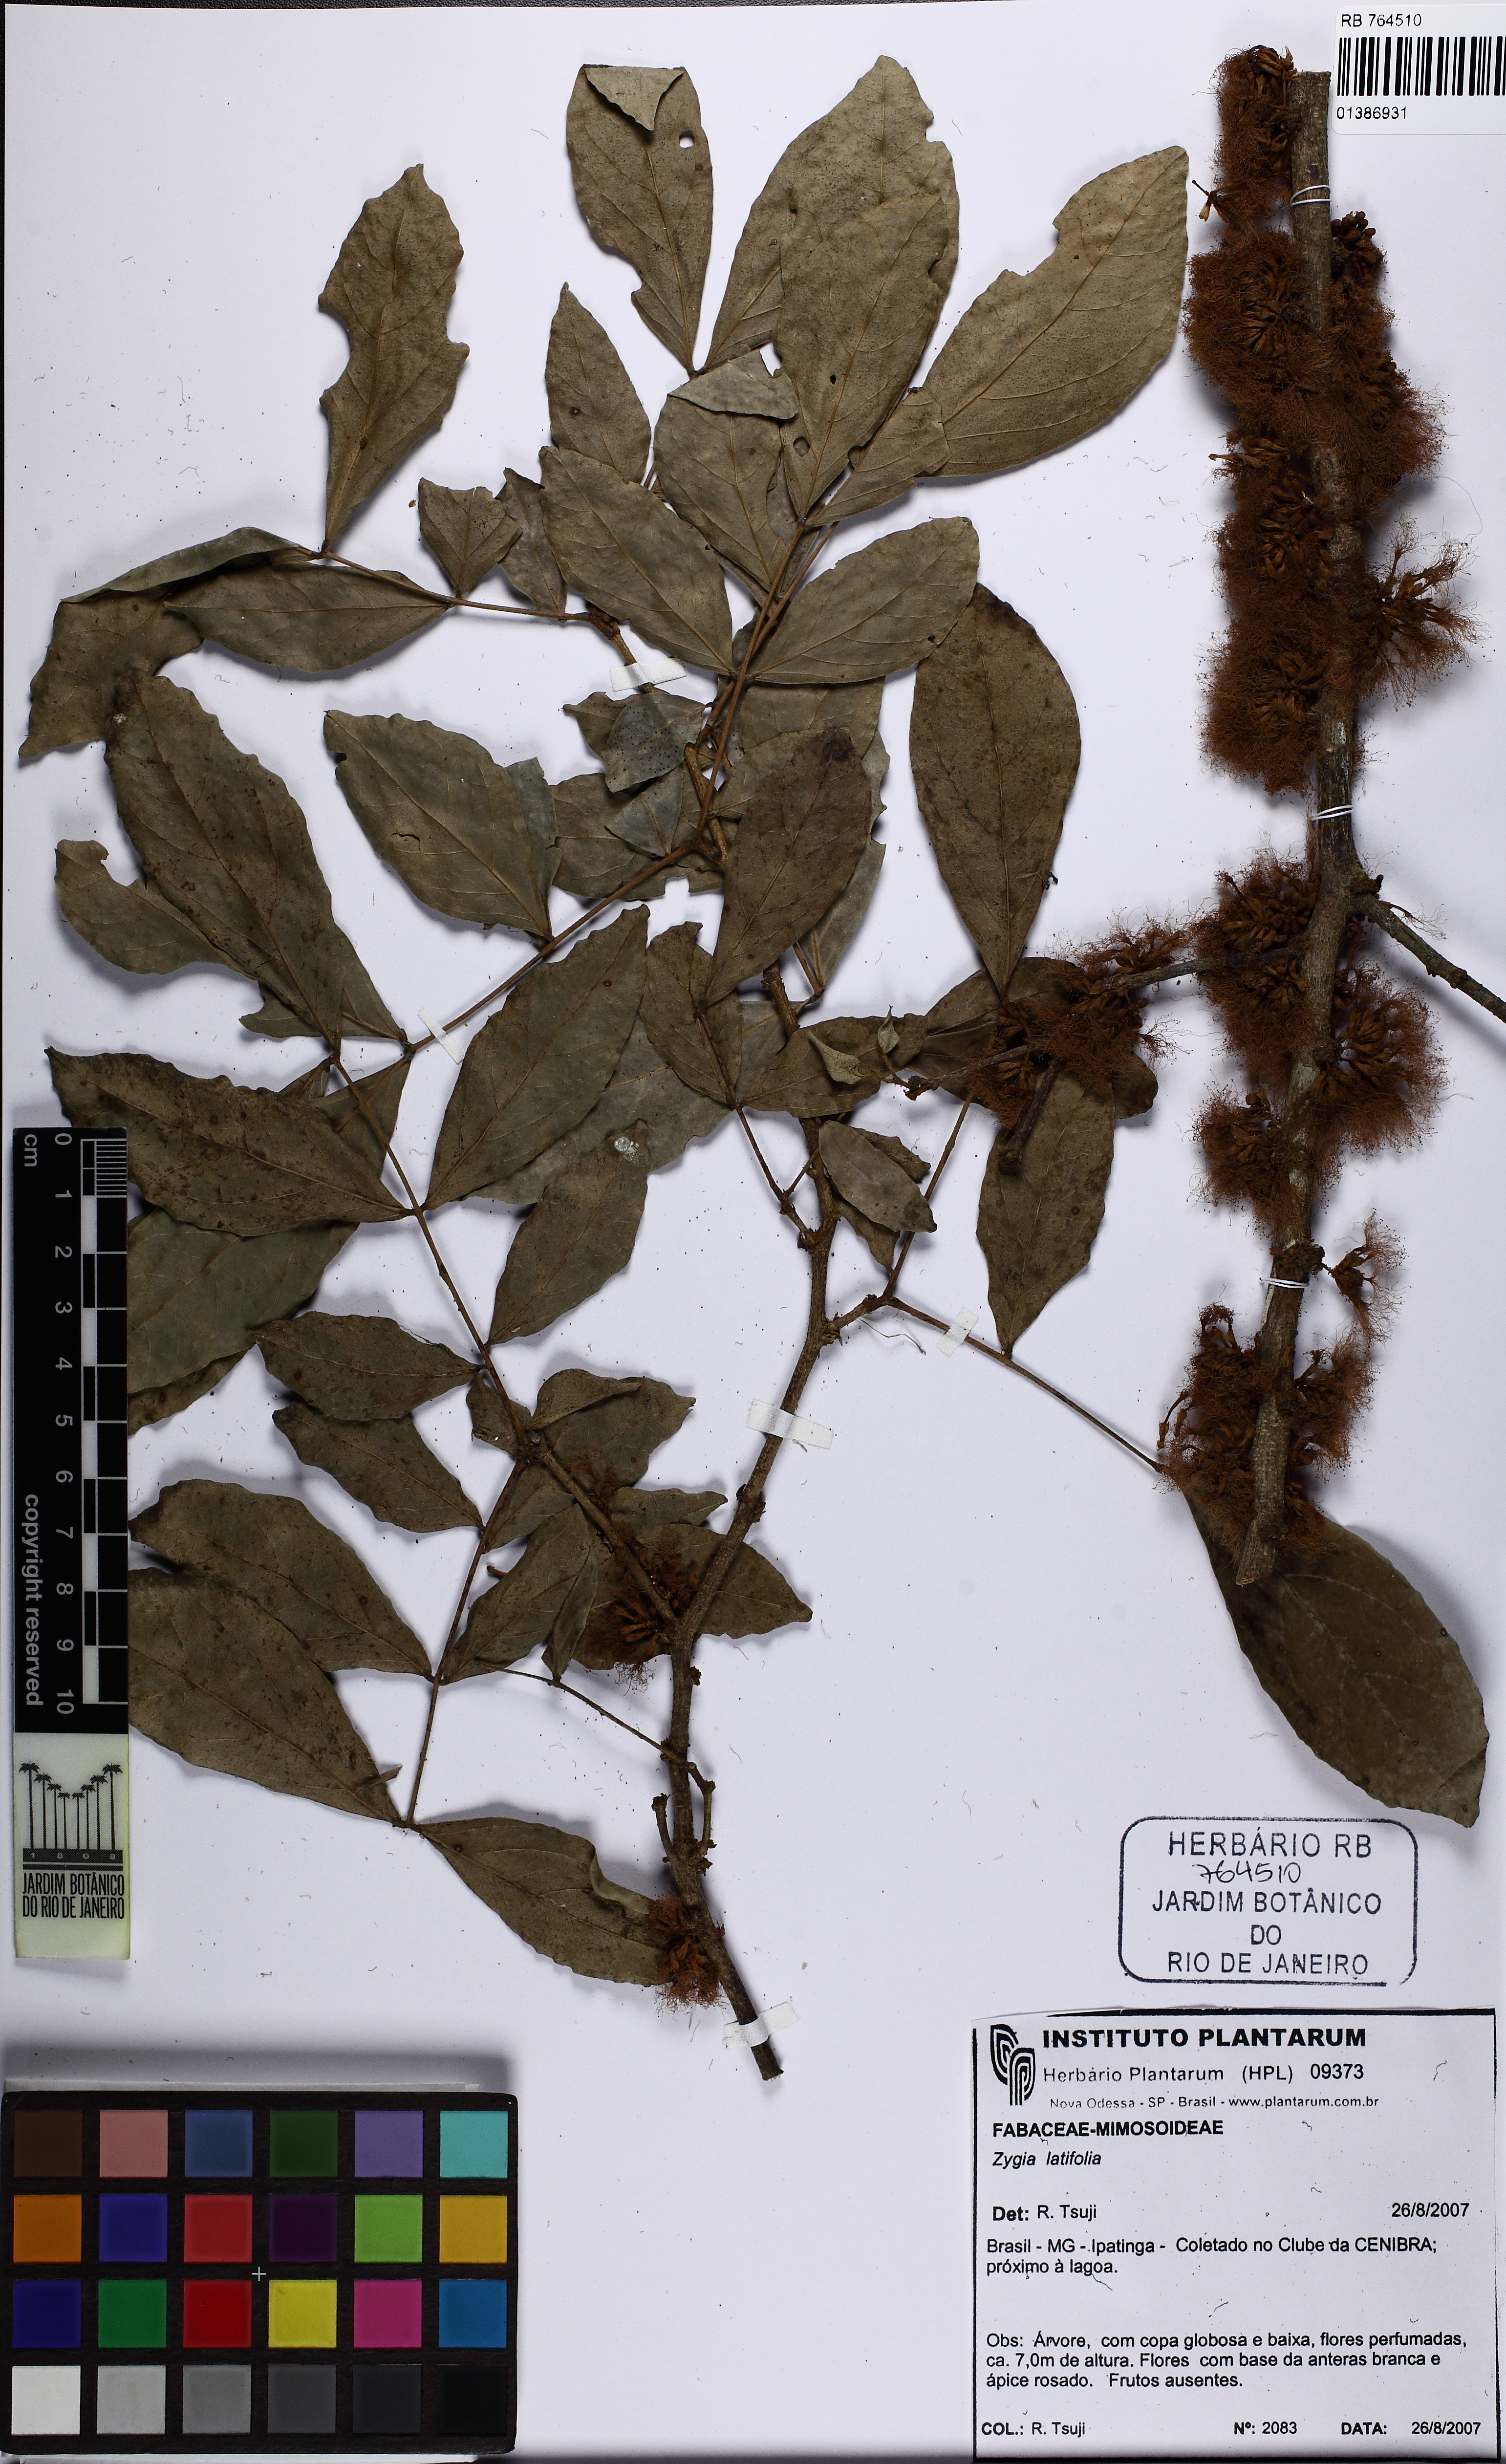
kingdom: Plantae
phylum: Tracheophyta
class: Magnoliopsida
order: Fabales
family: Fabaceae
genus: Zygia
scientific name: Zygia latifolia
